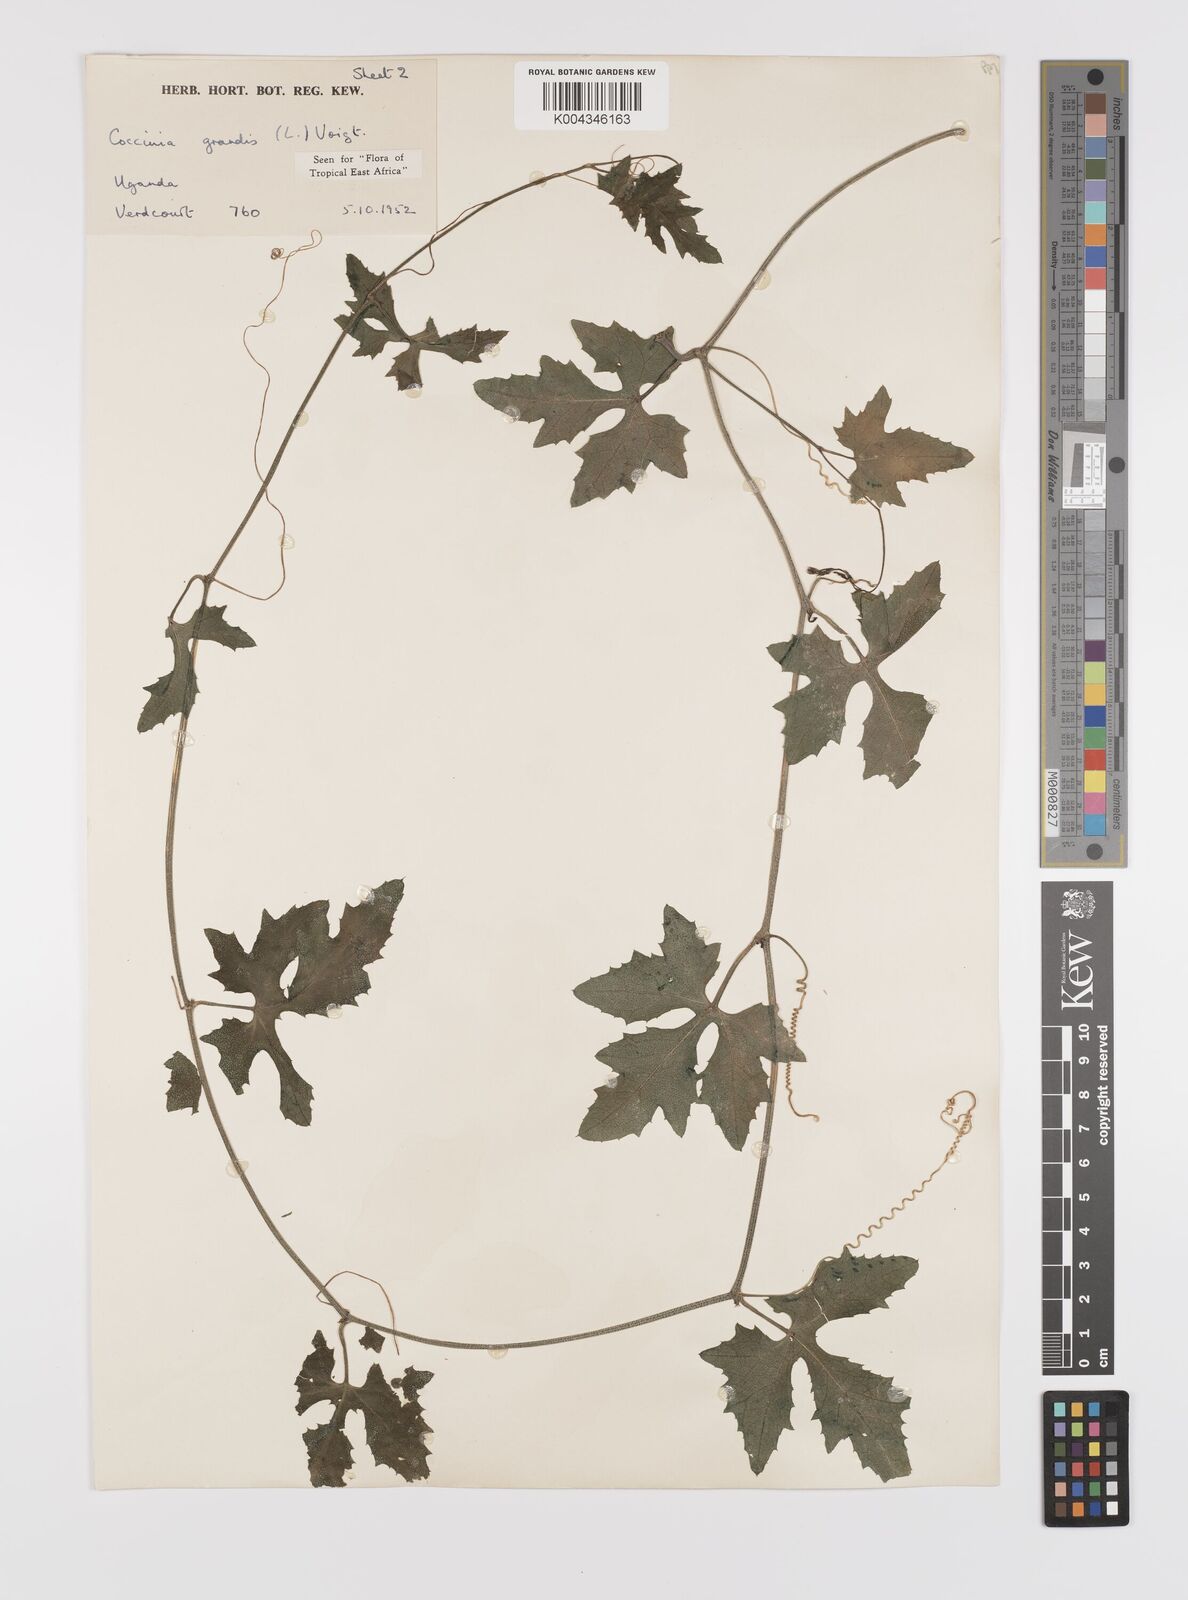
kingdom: Plantae
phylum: Tracheophyta
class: Magnoliopsida
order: Cucurbitales
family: Cucurbitaceae
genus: Coccinia
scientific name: Coccinia grandis
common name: Ivy gourd
